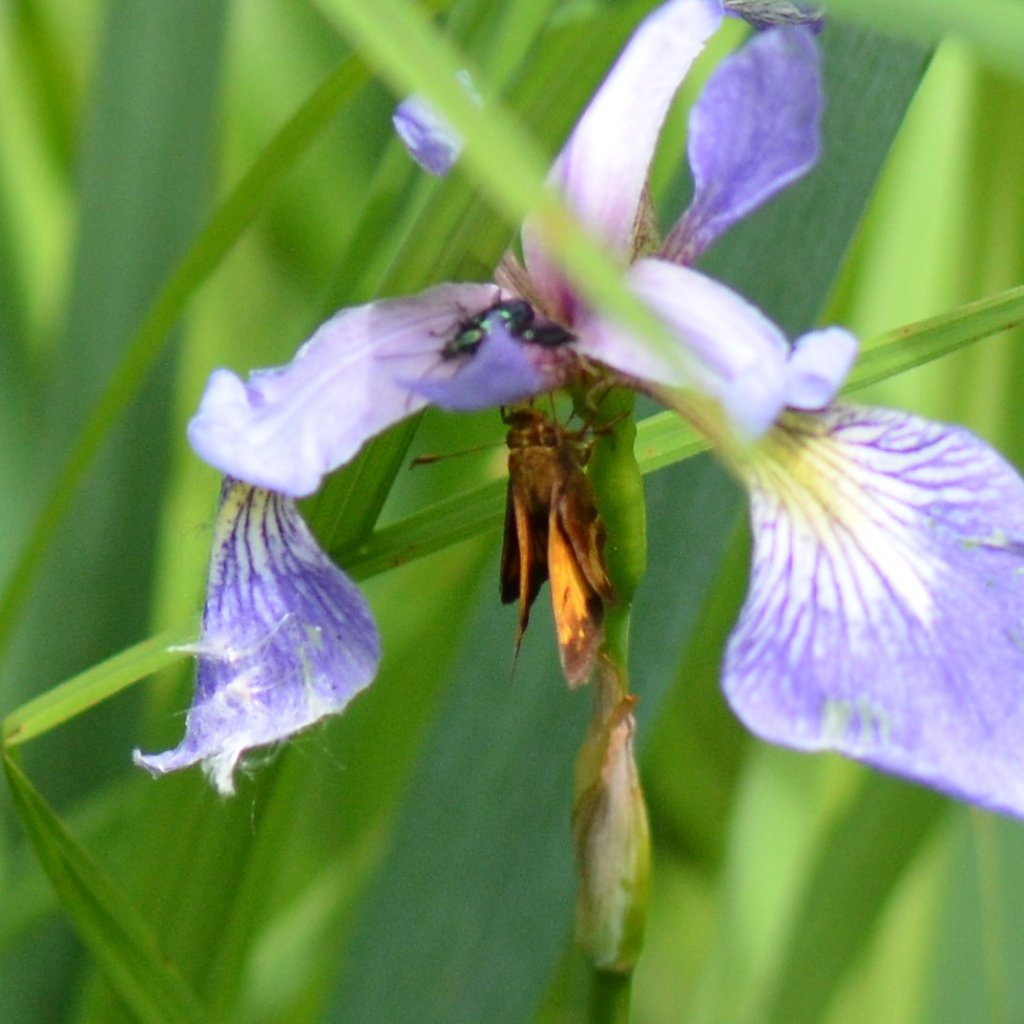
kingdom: Animalia
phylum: Arthropoda
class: Insecta
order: Lepidoptera
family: Hesperiidae
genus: Lon
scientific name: Lon hobomok
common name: Hobomok Skipper
